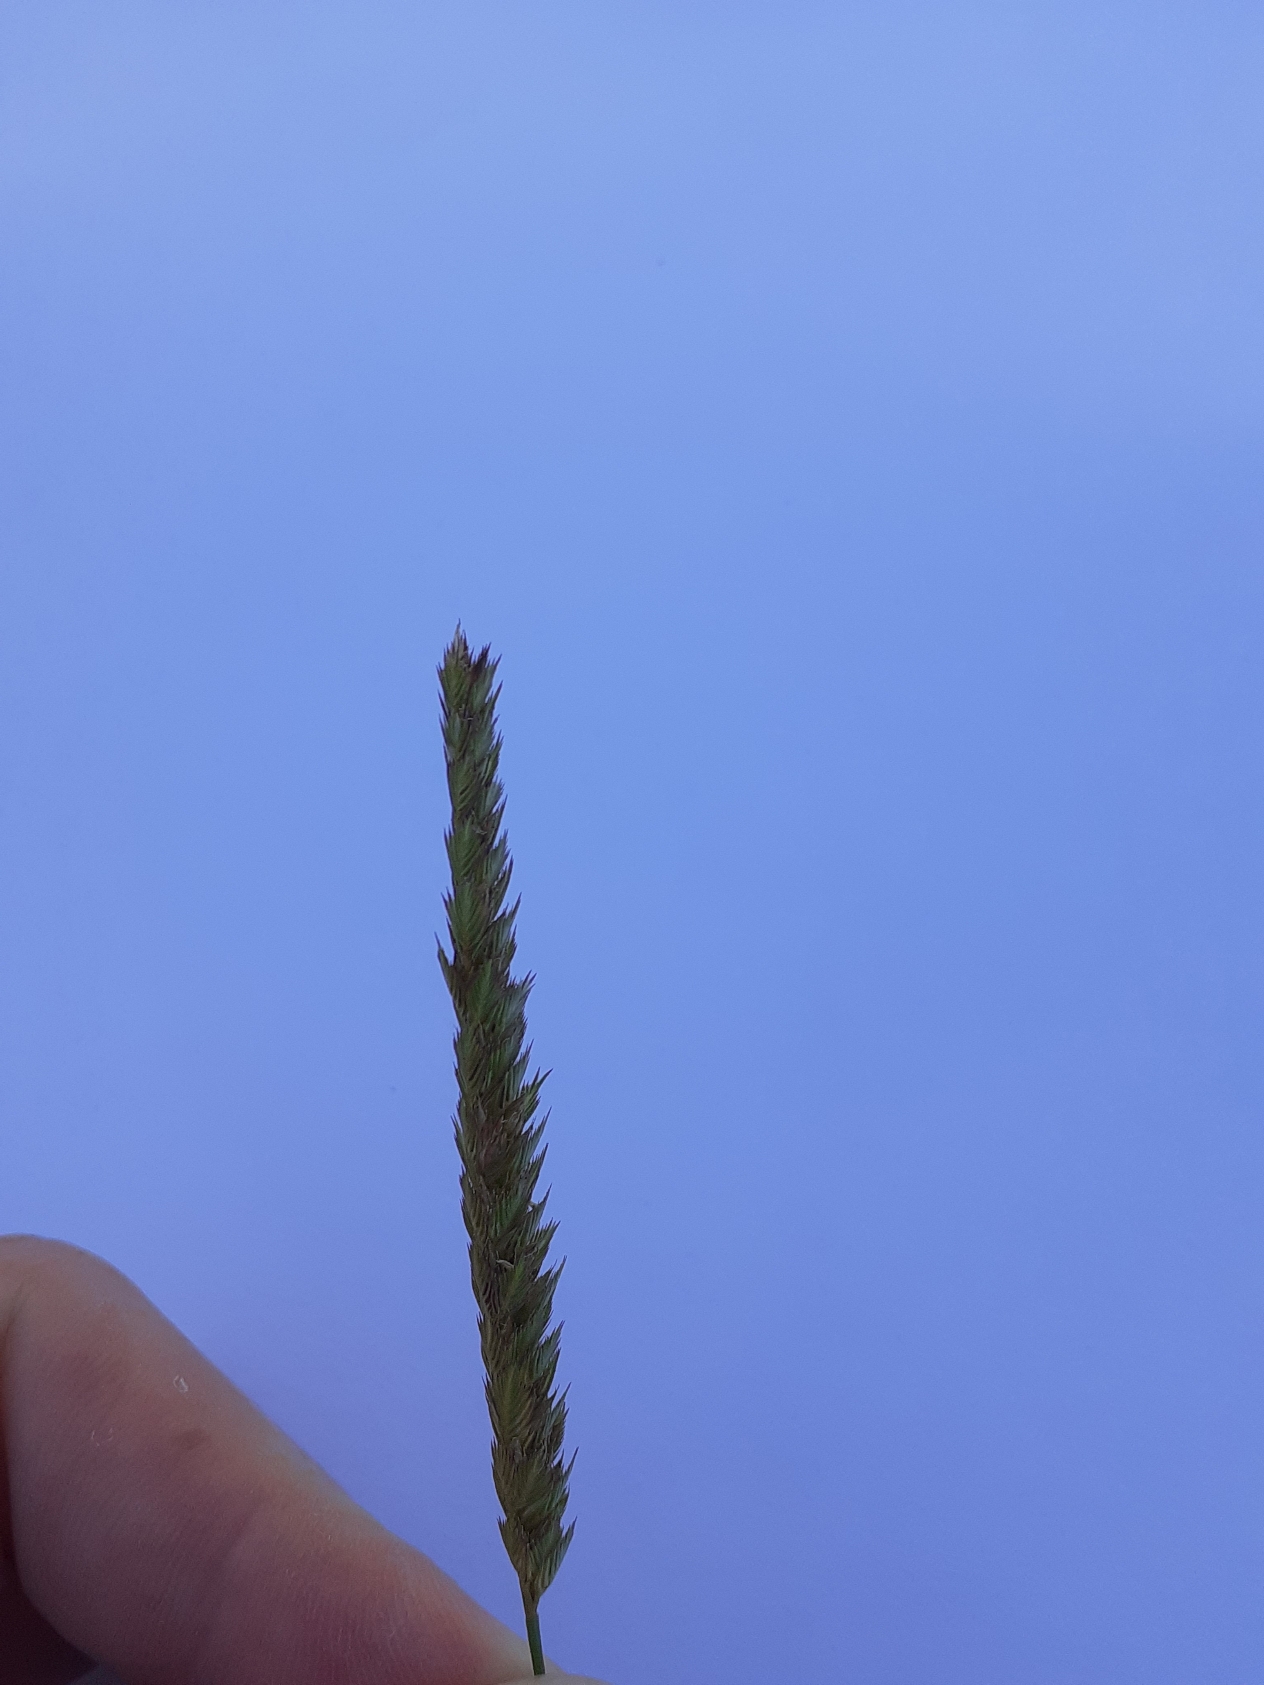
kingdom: Plantae
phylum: Tracheophyta
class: Liliopsida
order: Poales
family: Poaceae
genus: Cynosurus
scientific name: Cynosurus cristatus
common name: Kamgræs
